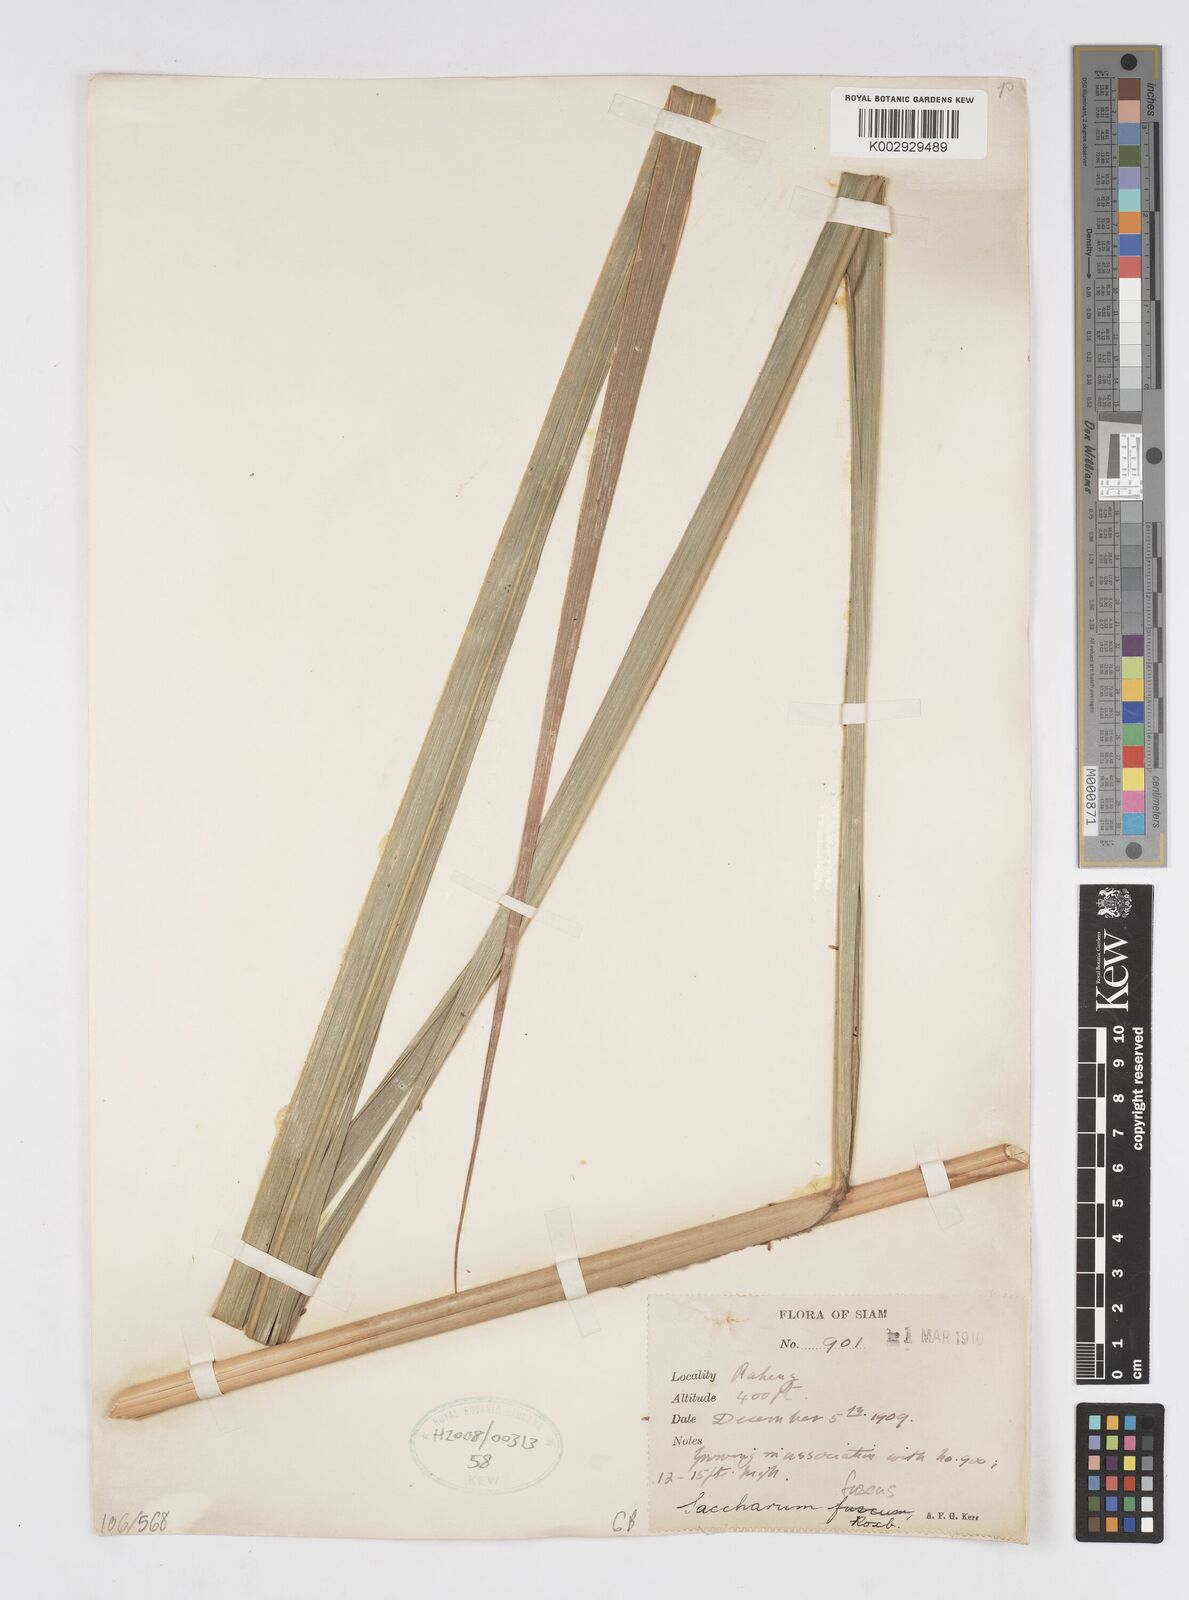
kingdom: Plantae
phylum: Tracheophyta
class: Liliopsida
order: Poales
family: Poaceae
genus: Miscanthus
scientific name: Miscanthus fuscus
